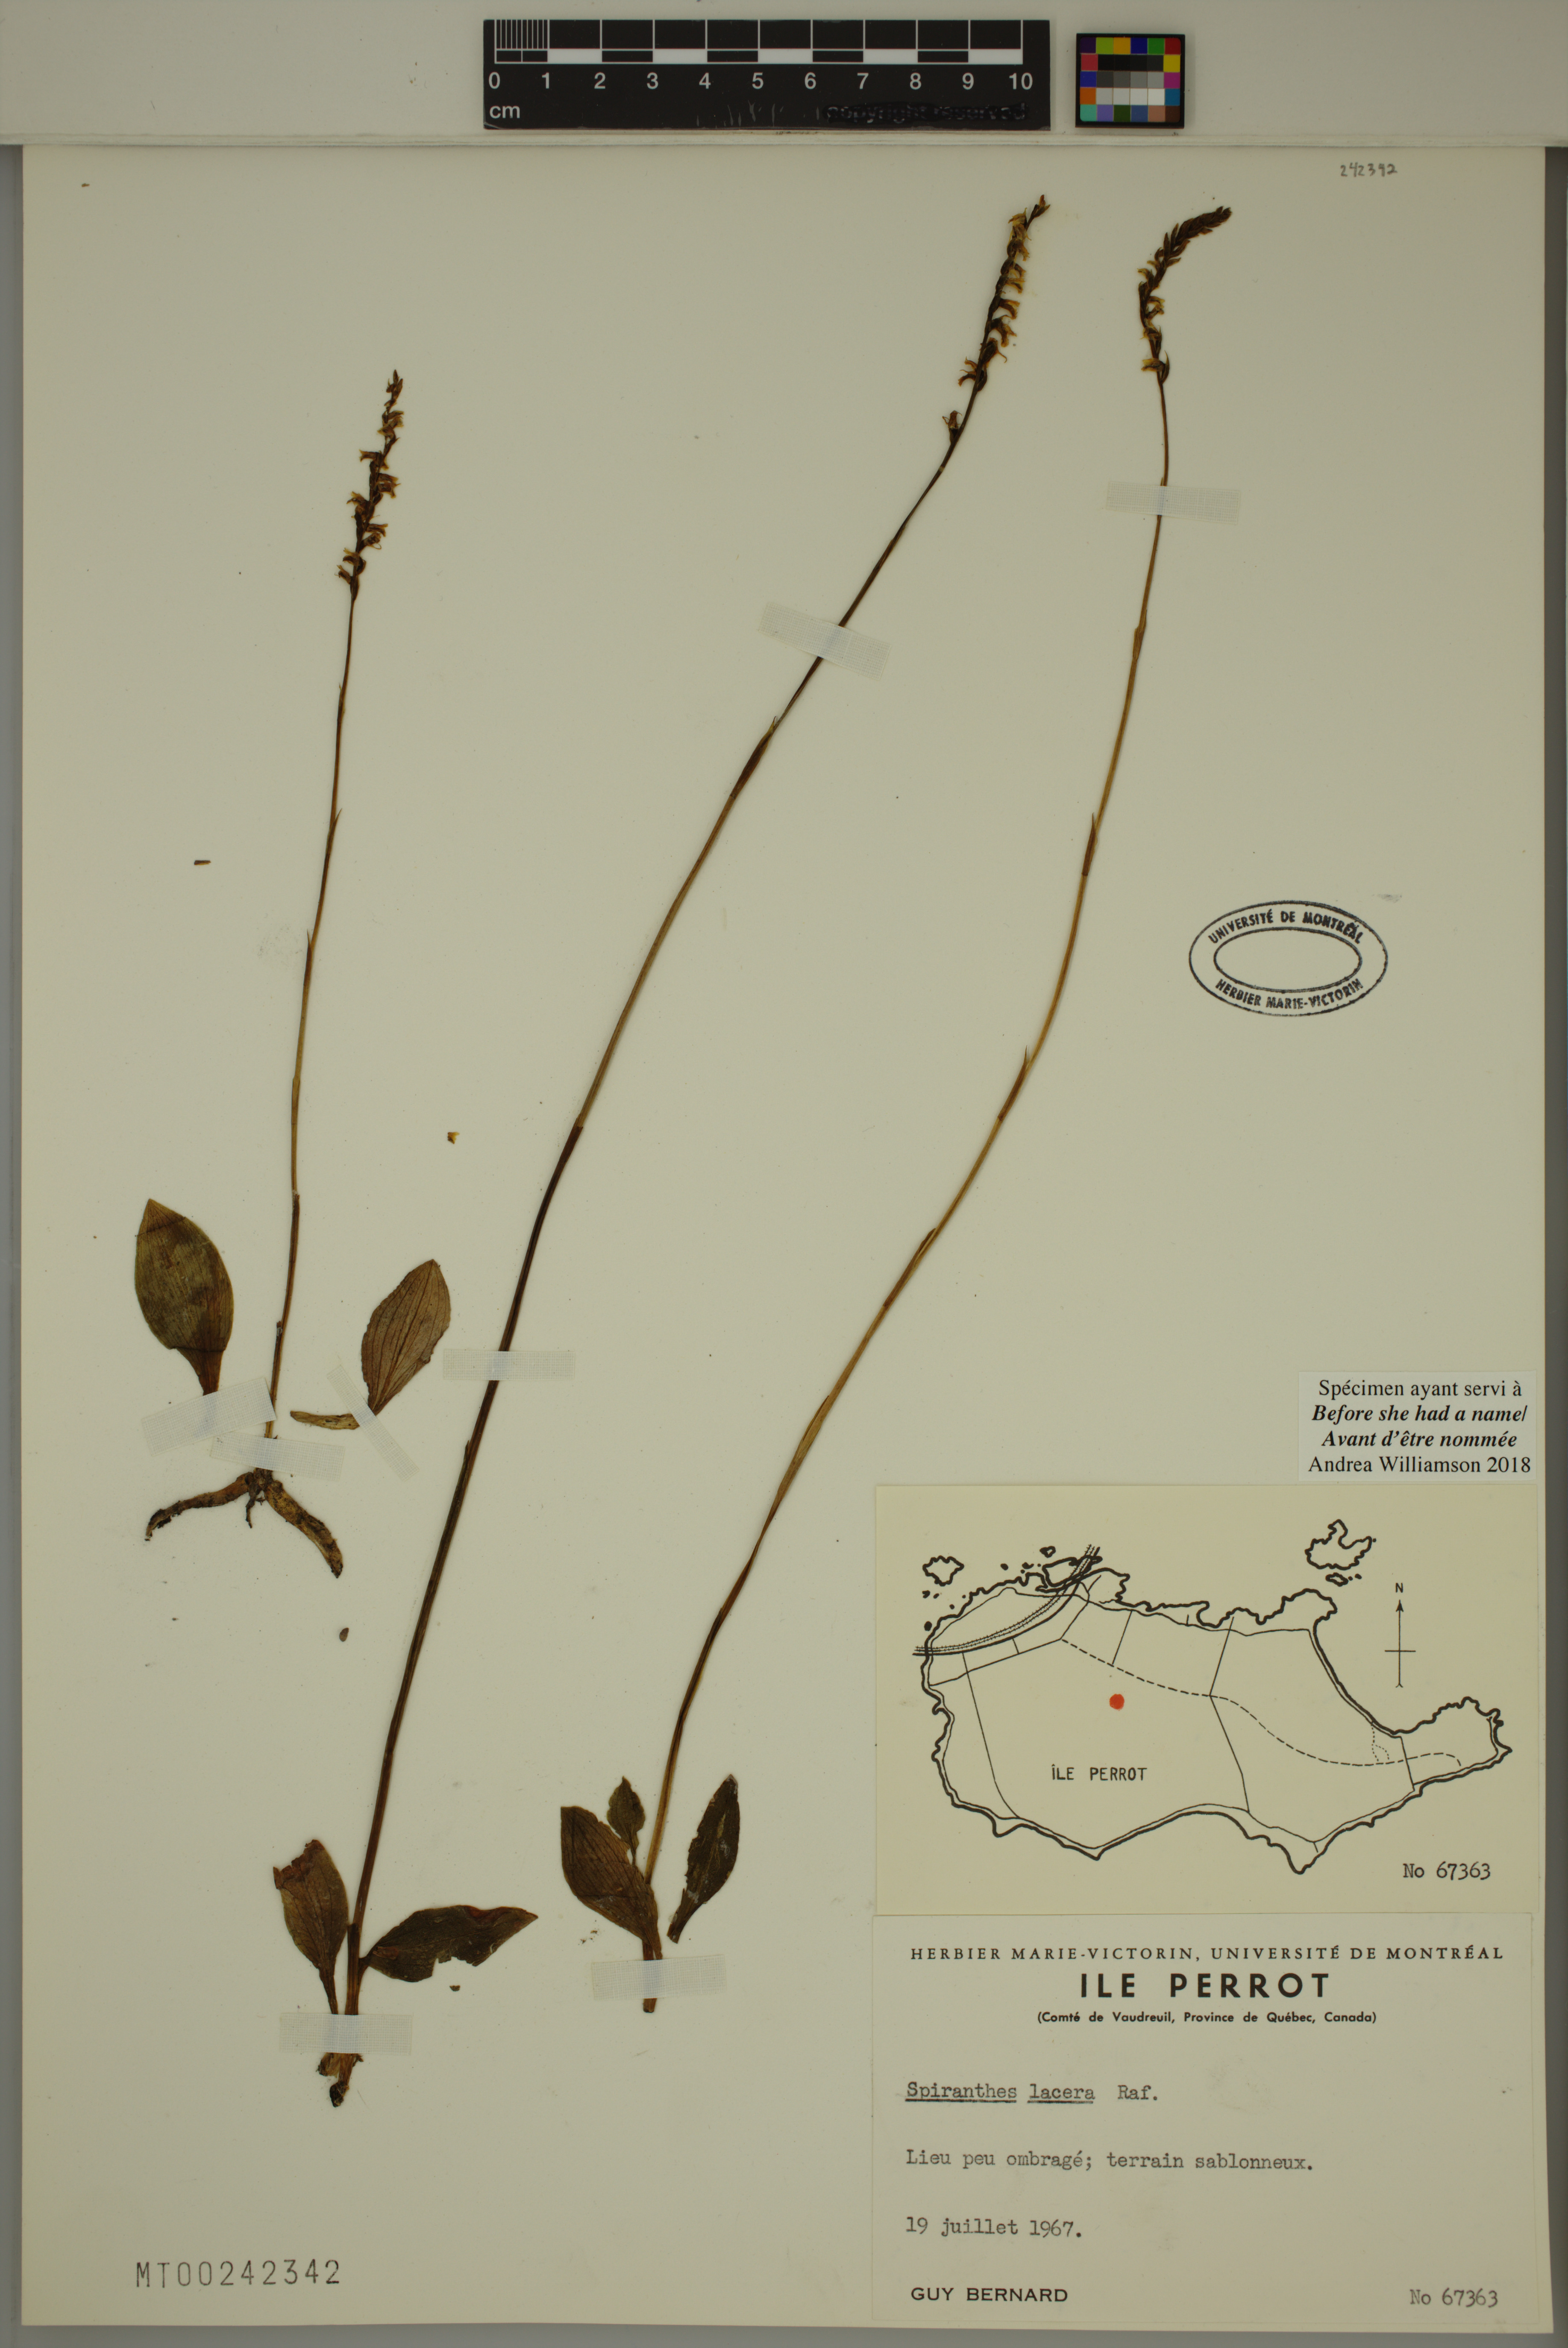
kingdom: Plantae
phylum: Tracheophyta
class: Liliopsida
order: Asparagales
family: Orchidaceae
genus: Spiranthes
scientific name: Spiranthes lacera
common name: Northern slender ladies'-tresses
